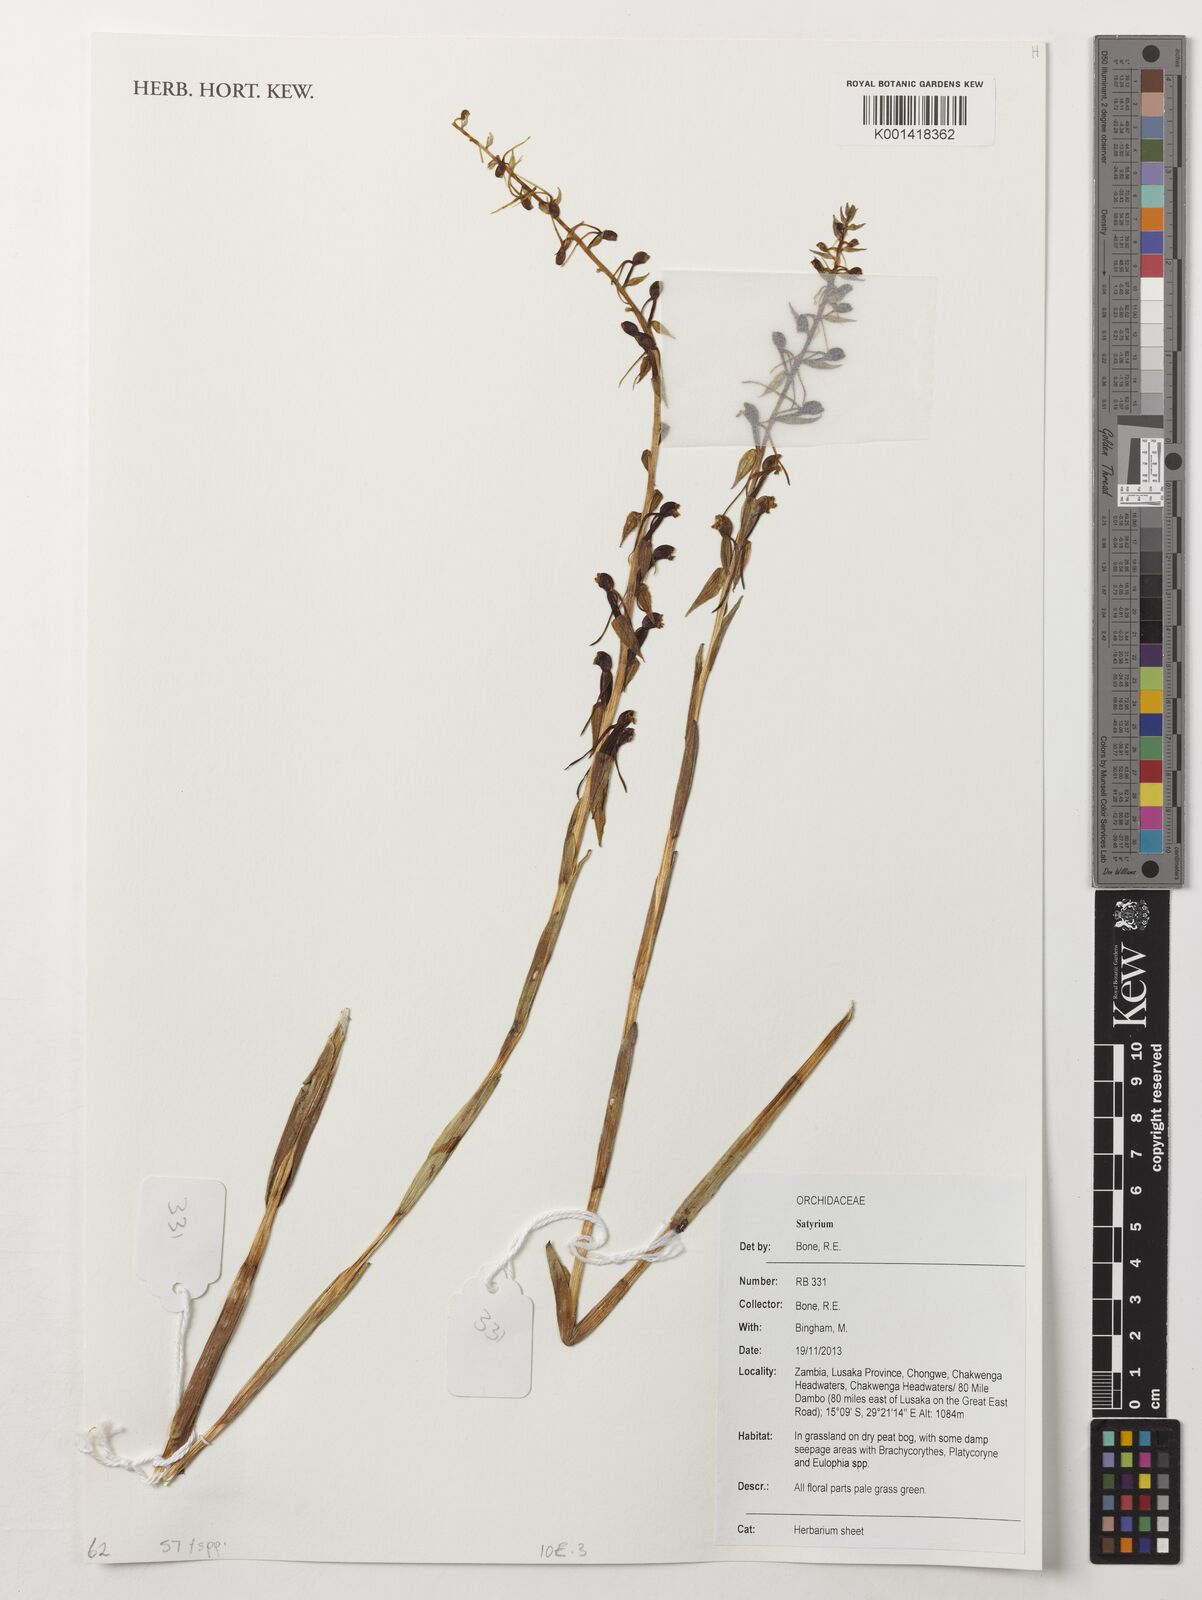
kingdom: Plantae
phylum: Tracheophyta
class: Liliopsida
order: Asparagales
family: Orchidaceae
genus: Satyrium
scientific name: Satyrium
